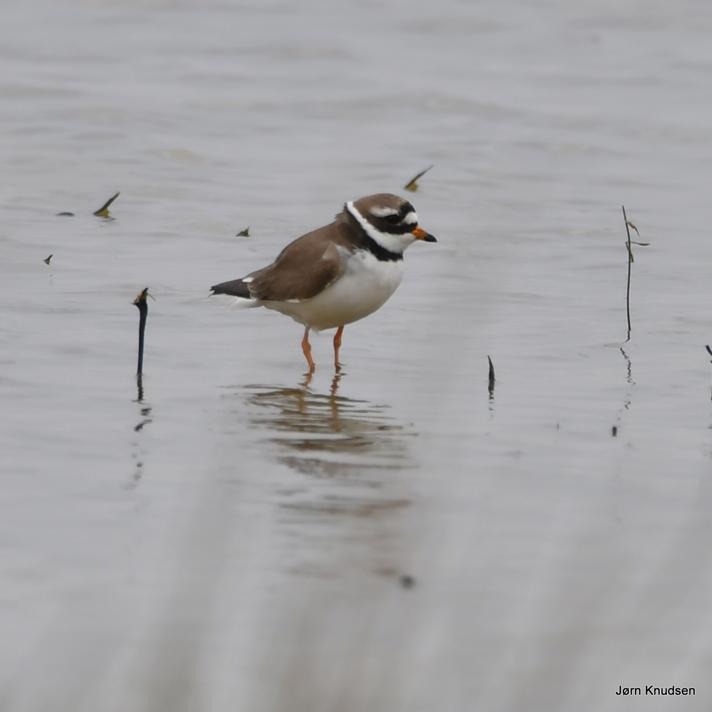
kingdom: Animalia
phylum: Chordata
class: Aves
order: Charadriiformes
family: Charadriidae
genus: Charadrius
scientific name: Charadrius hiaticula
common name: Stor præstekrave
